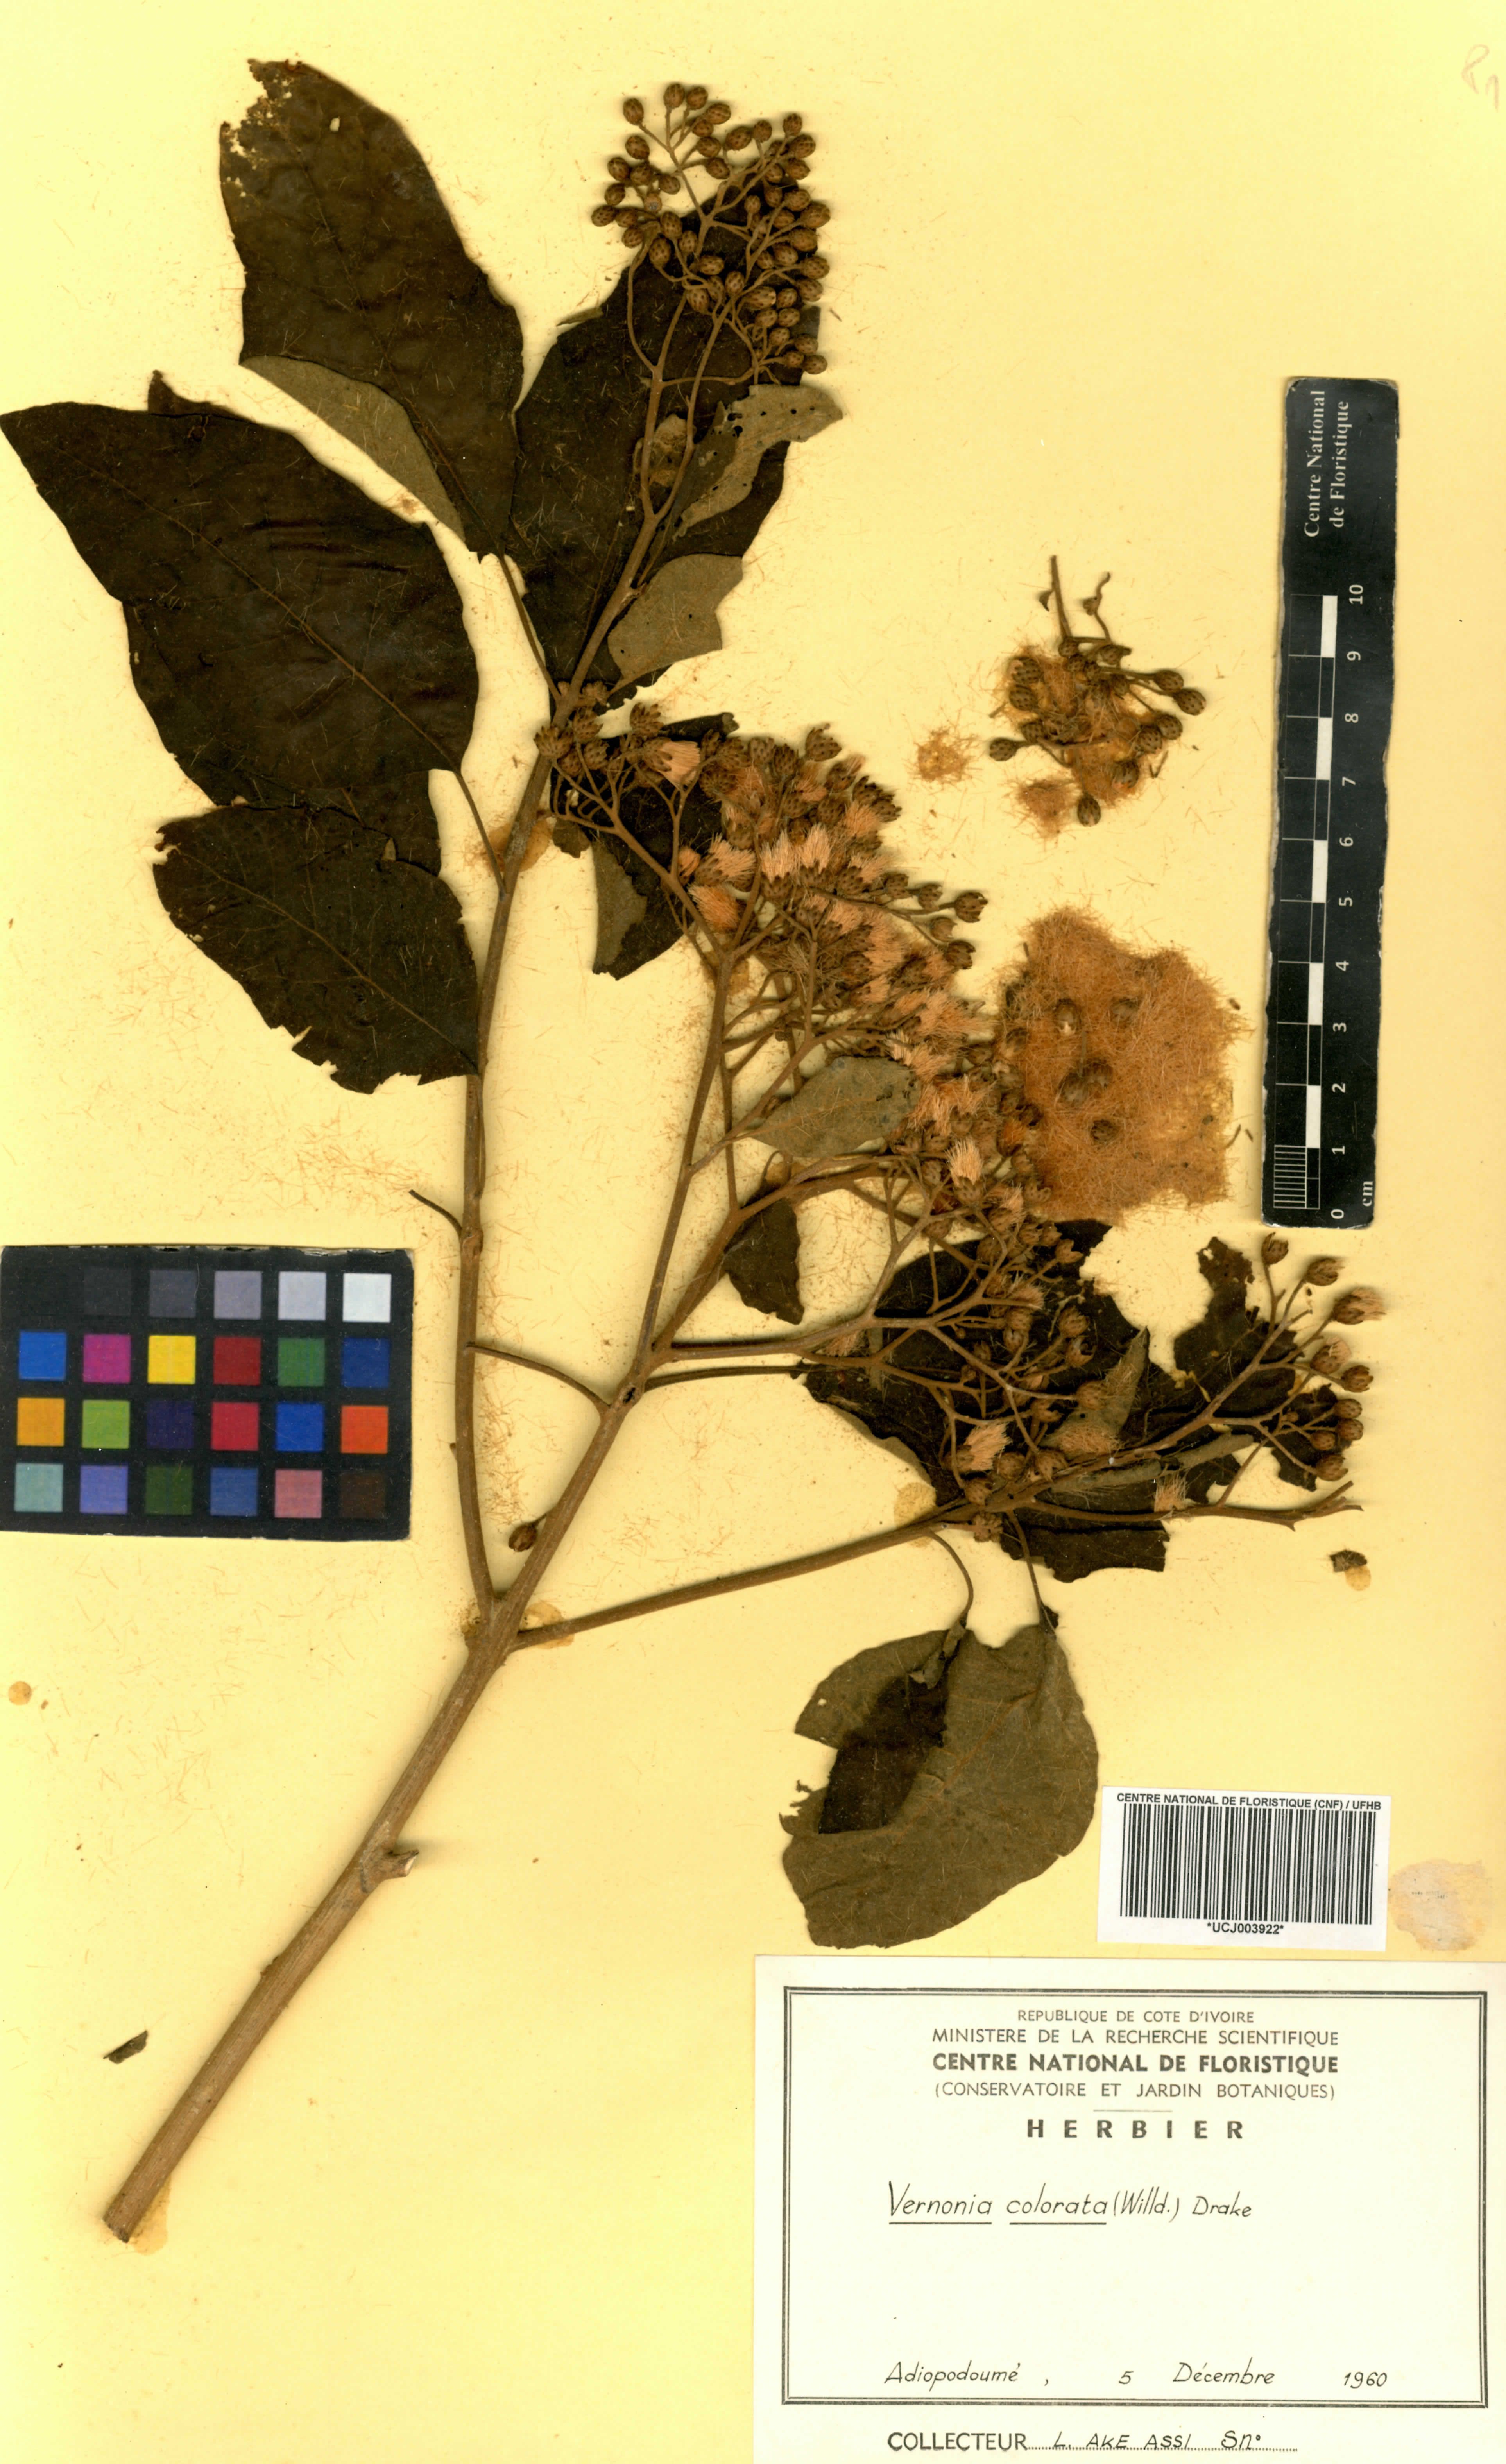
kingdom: Plantae
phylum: Tracheophyta
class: Magnoliopsida
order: Asterales
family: Asteraceae
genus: Vernonia
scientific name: Vernonia colorata
